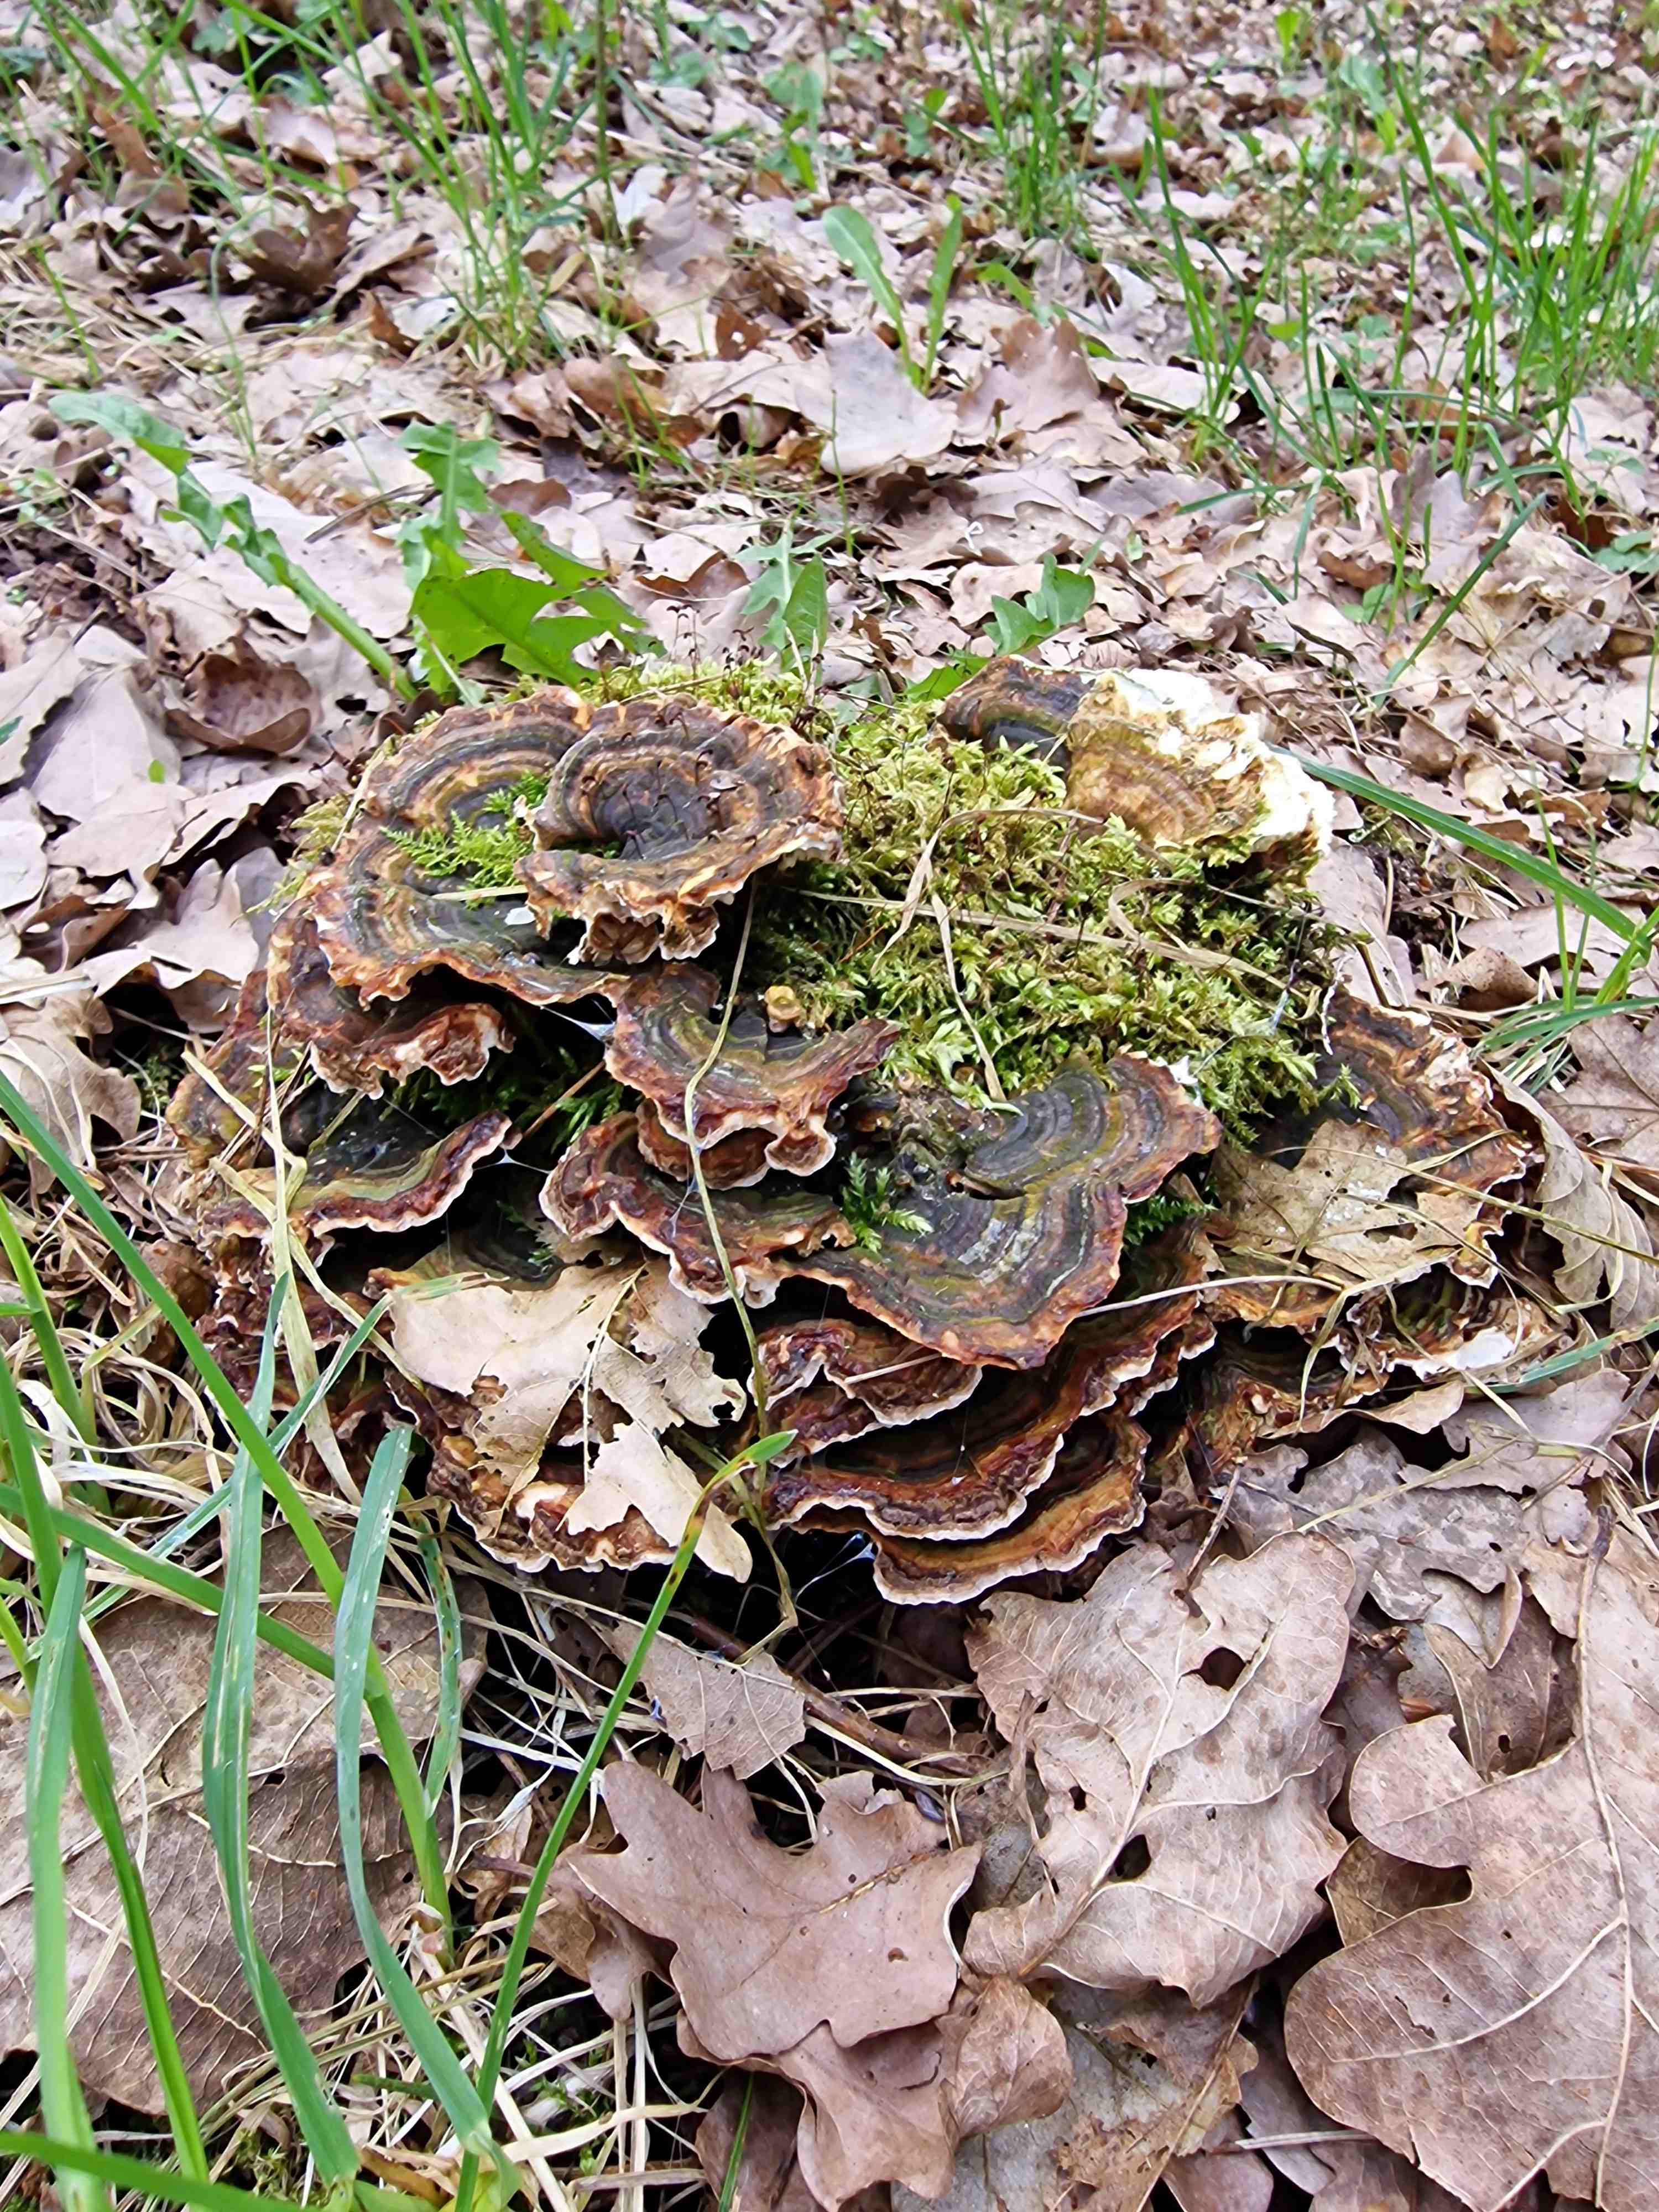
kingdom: Fungi
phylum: Basidiomycota
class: Agaricomycetes
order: Polyporales
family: Polyporaceae
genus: Trametes
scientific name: Trametes versicolor
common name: broget læderporesvamp
